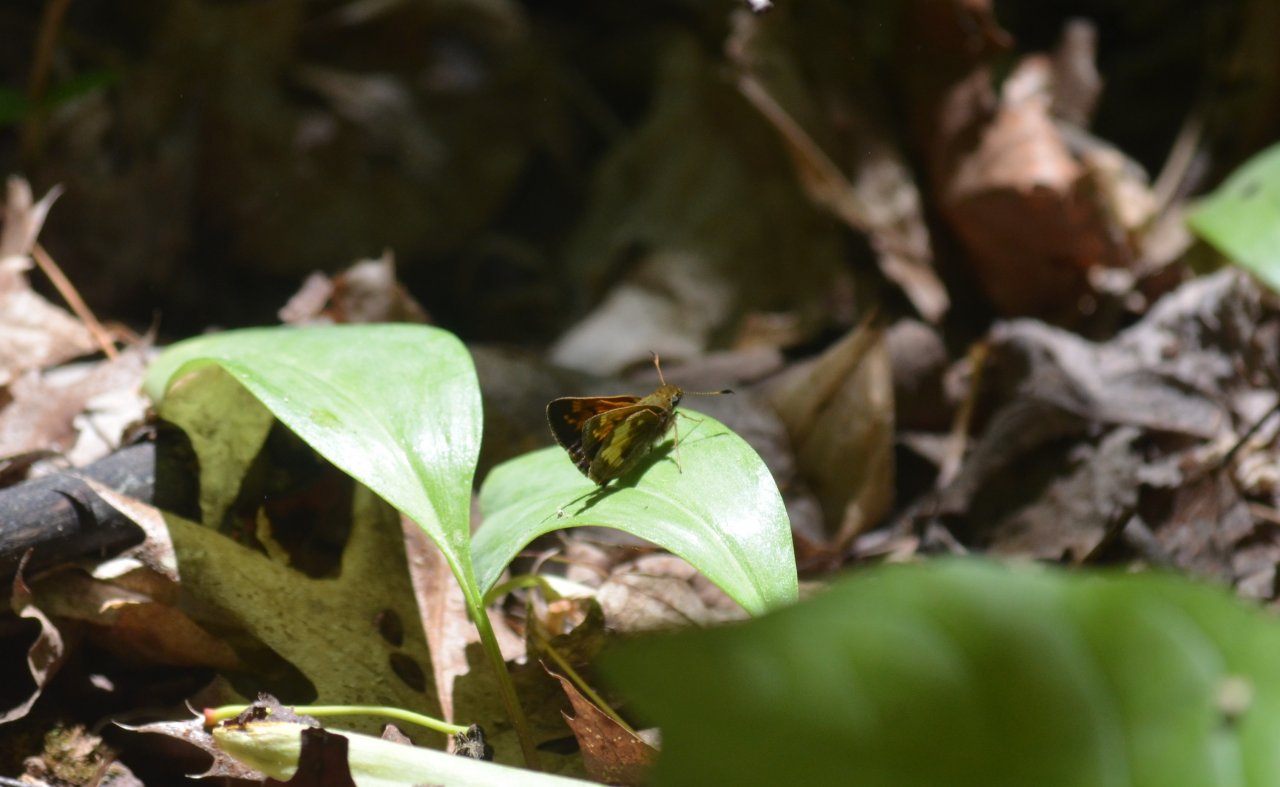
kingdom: Animalia
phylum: Arthropoda
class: Insecta
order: Lepidoptera
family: Hesperiidae
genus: Lon
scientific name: Lon hobomok
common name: Hobomok Skipper
